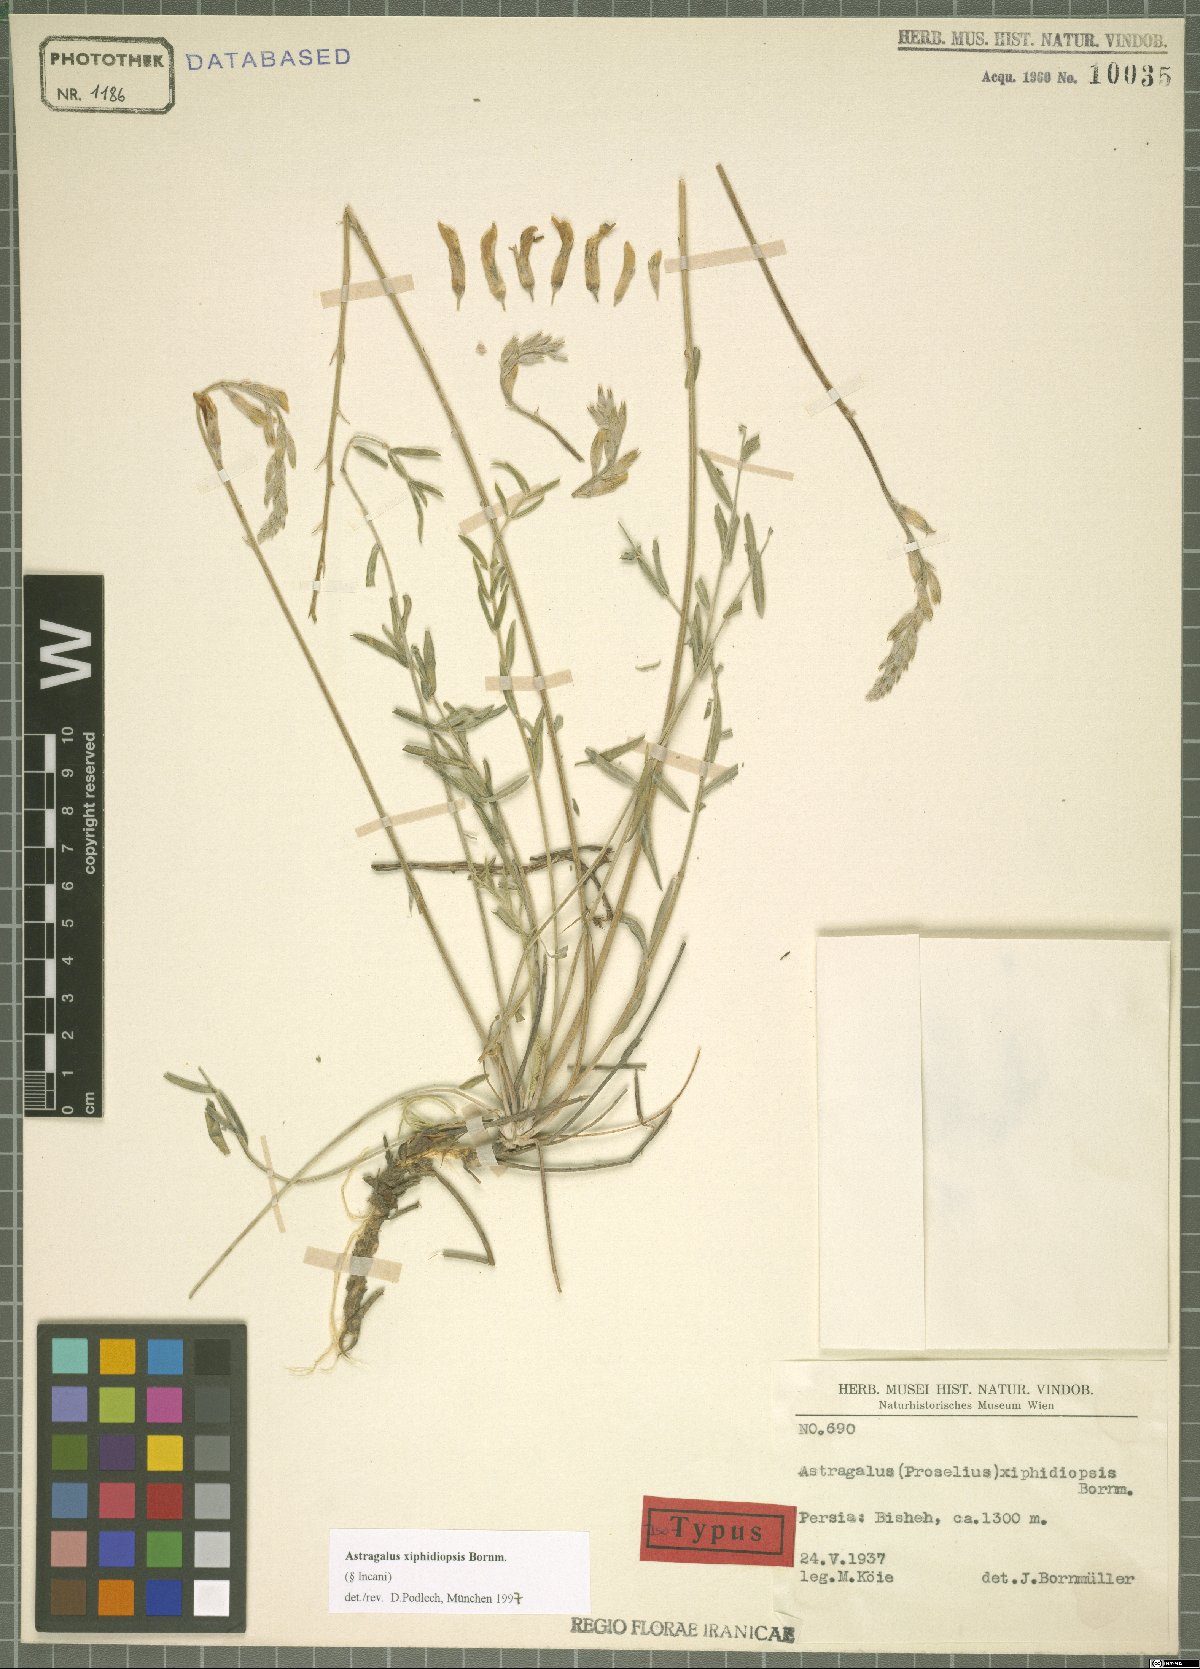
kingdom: Plantae
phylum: Tracheophyta
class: Magnoliopsida
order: Fabales
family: Fabaceae
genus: Astragalus
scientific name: Astragalus xiphidiopsis
